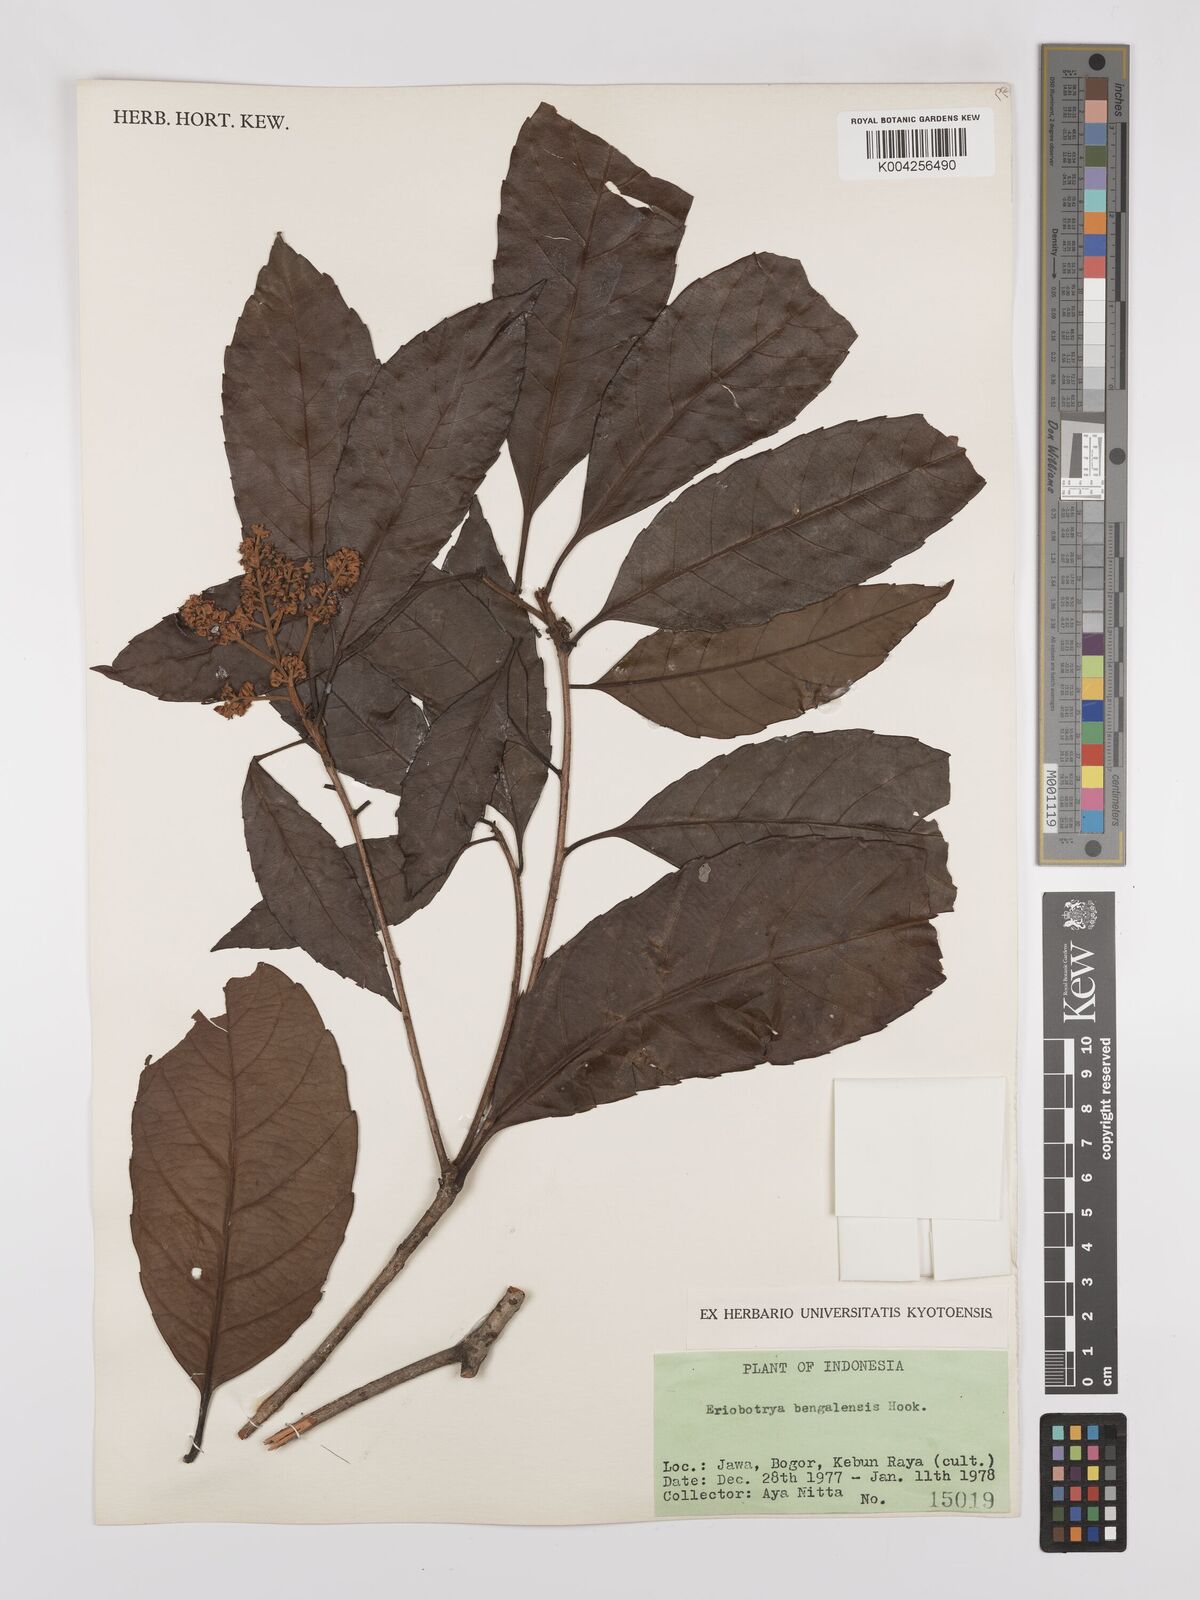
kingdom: Plantae
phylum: Tracheophyta
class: Magnoliopsida
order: Rosales
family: Rosaceae
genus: Rhaphiolepis
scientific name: Rhaphiolepis bengalensis
